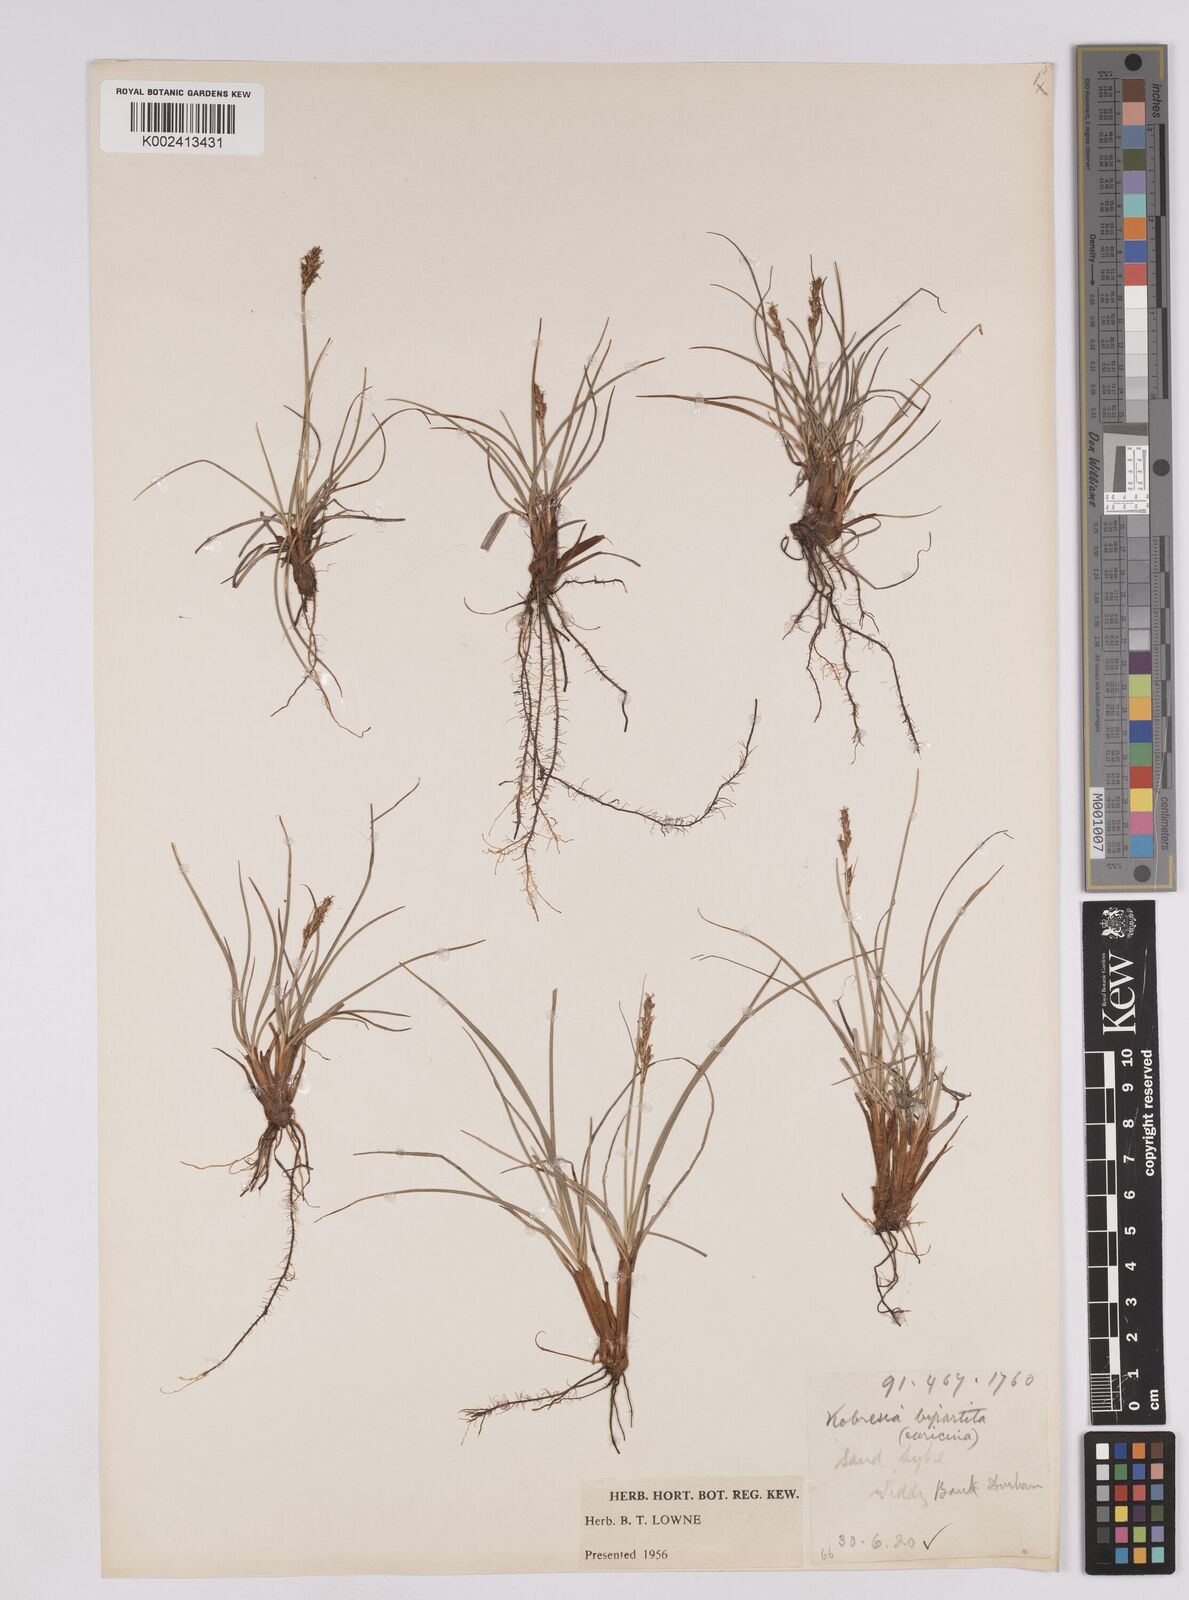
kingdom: Plantae
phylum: Tracheophyta
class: Liliopsida
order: Poales
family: Cyperaceae
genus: Carex
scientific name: Carex simpliciuscula
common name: Simple bog sedge
